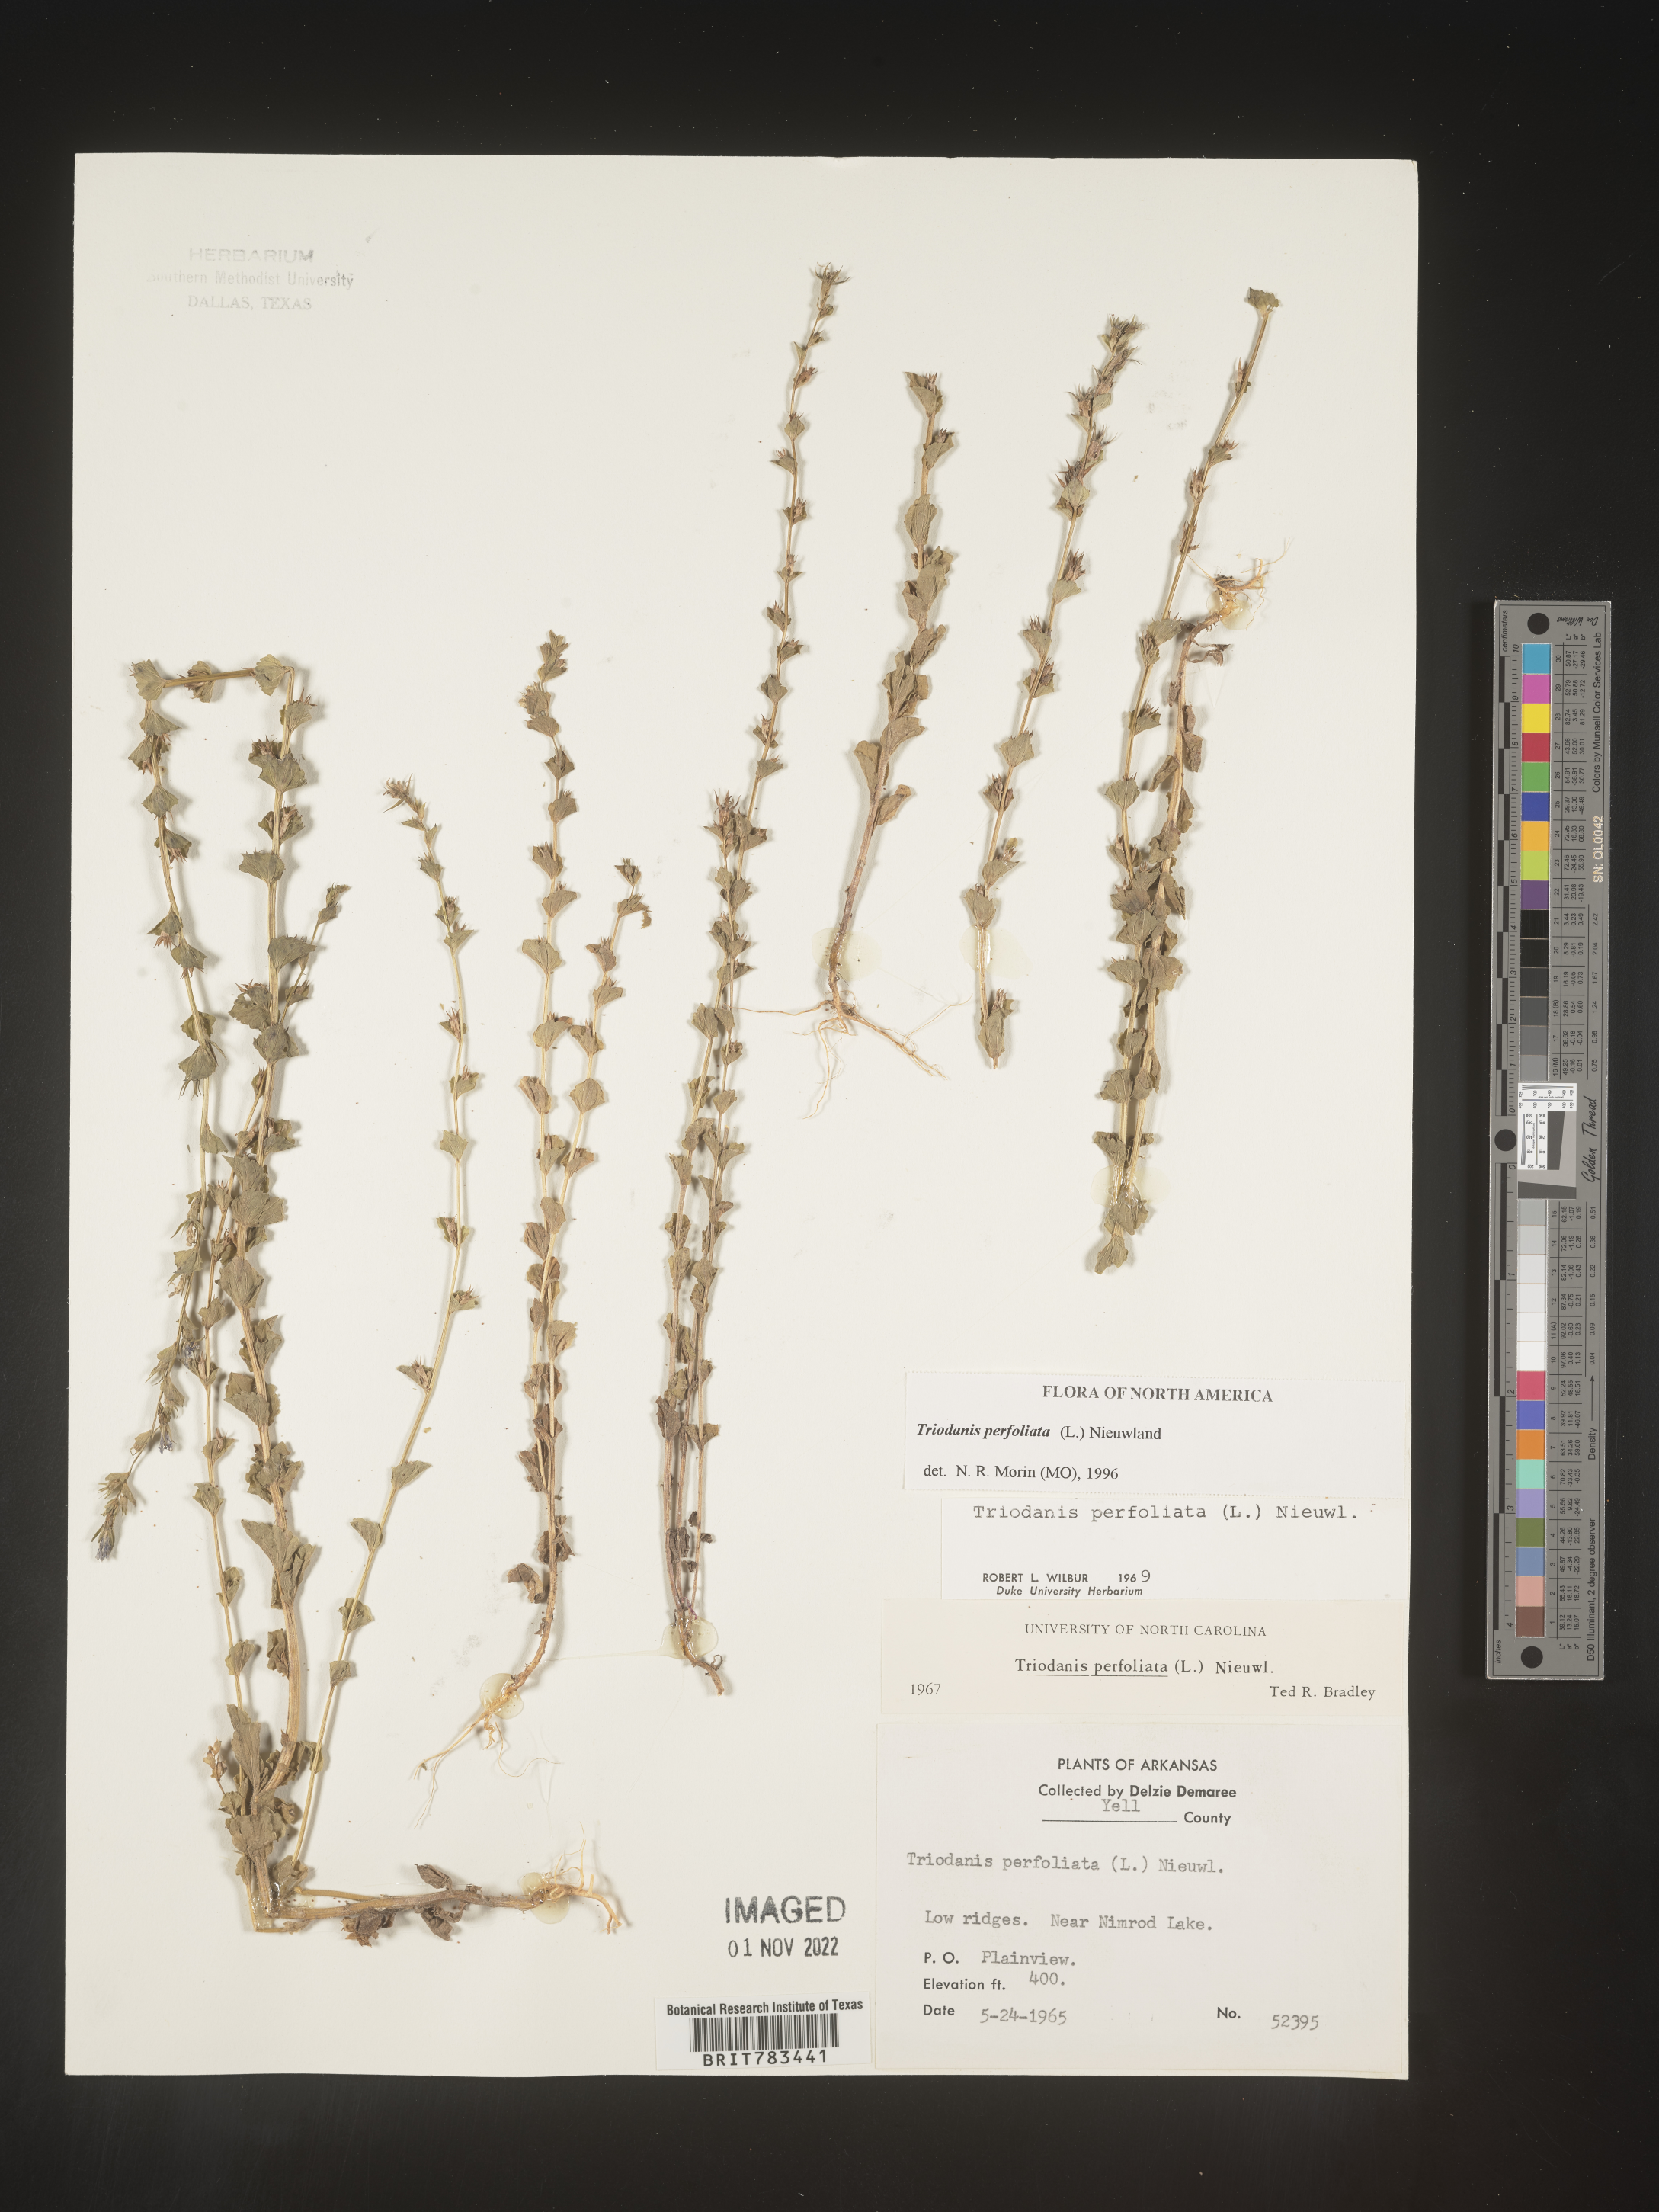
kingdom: Plantae
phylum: Tracheophyta
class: Magnoliopsida
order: Asterales
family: Campanulaceae
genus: Triodanis
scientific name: Triodanis perfoliata
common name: Clasping venus' looking-glass
